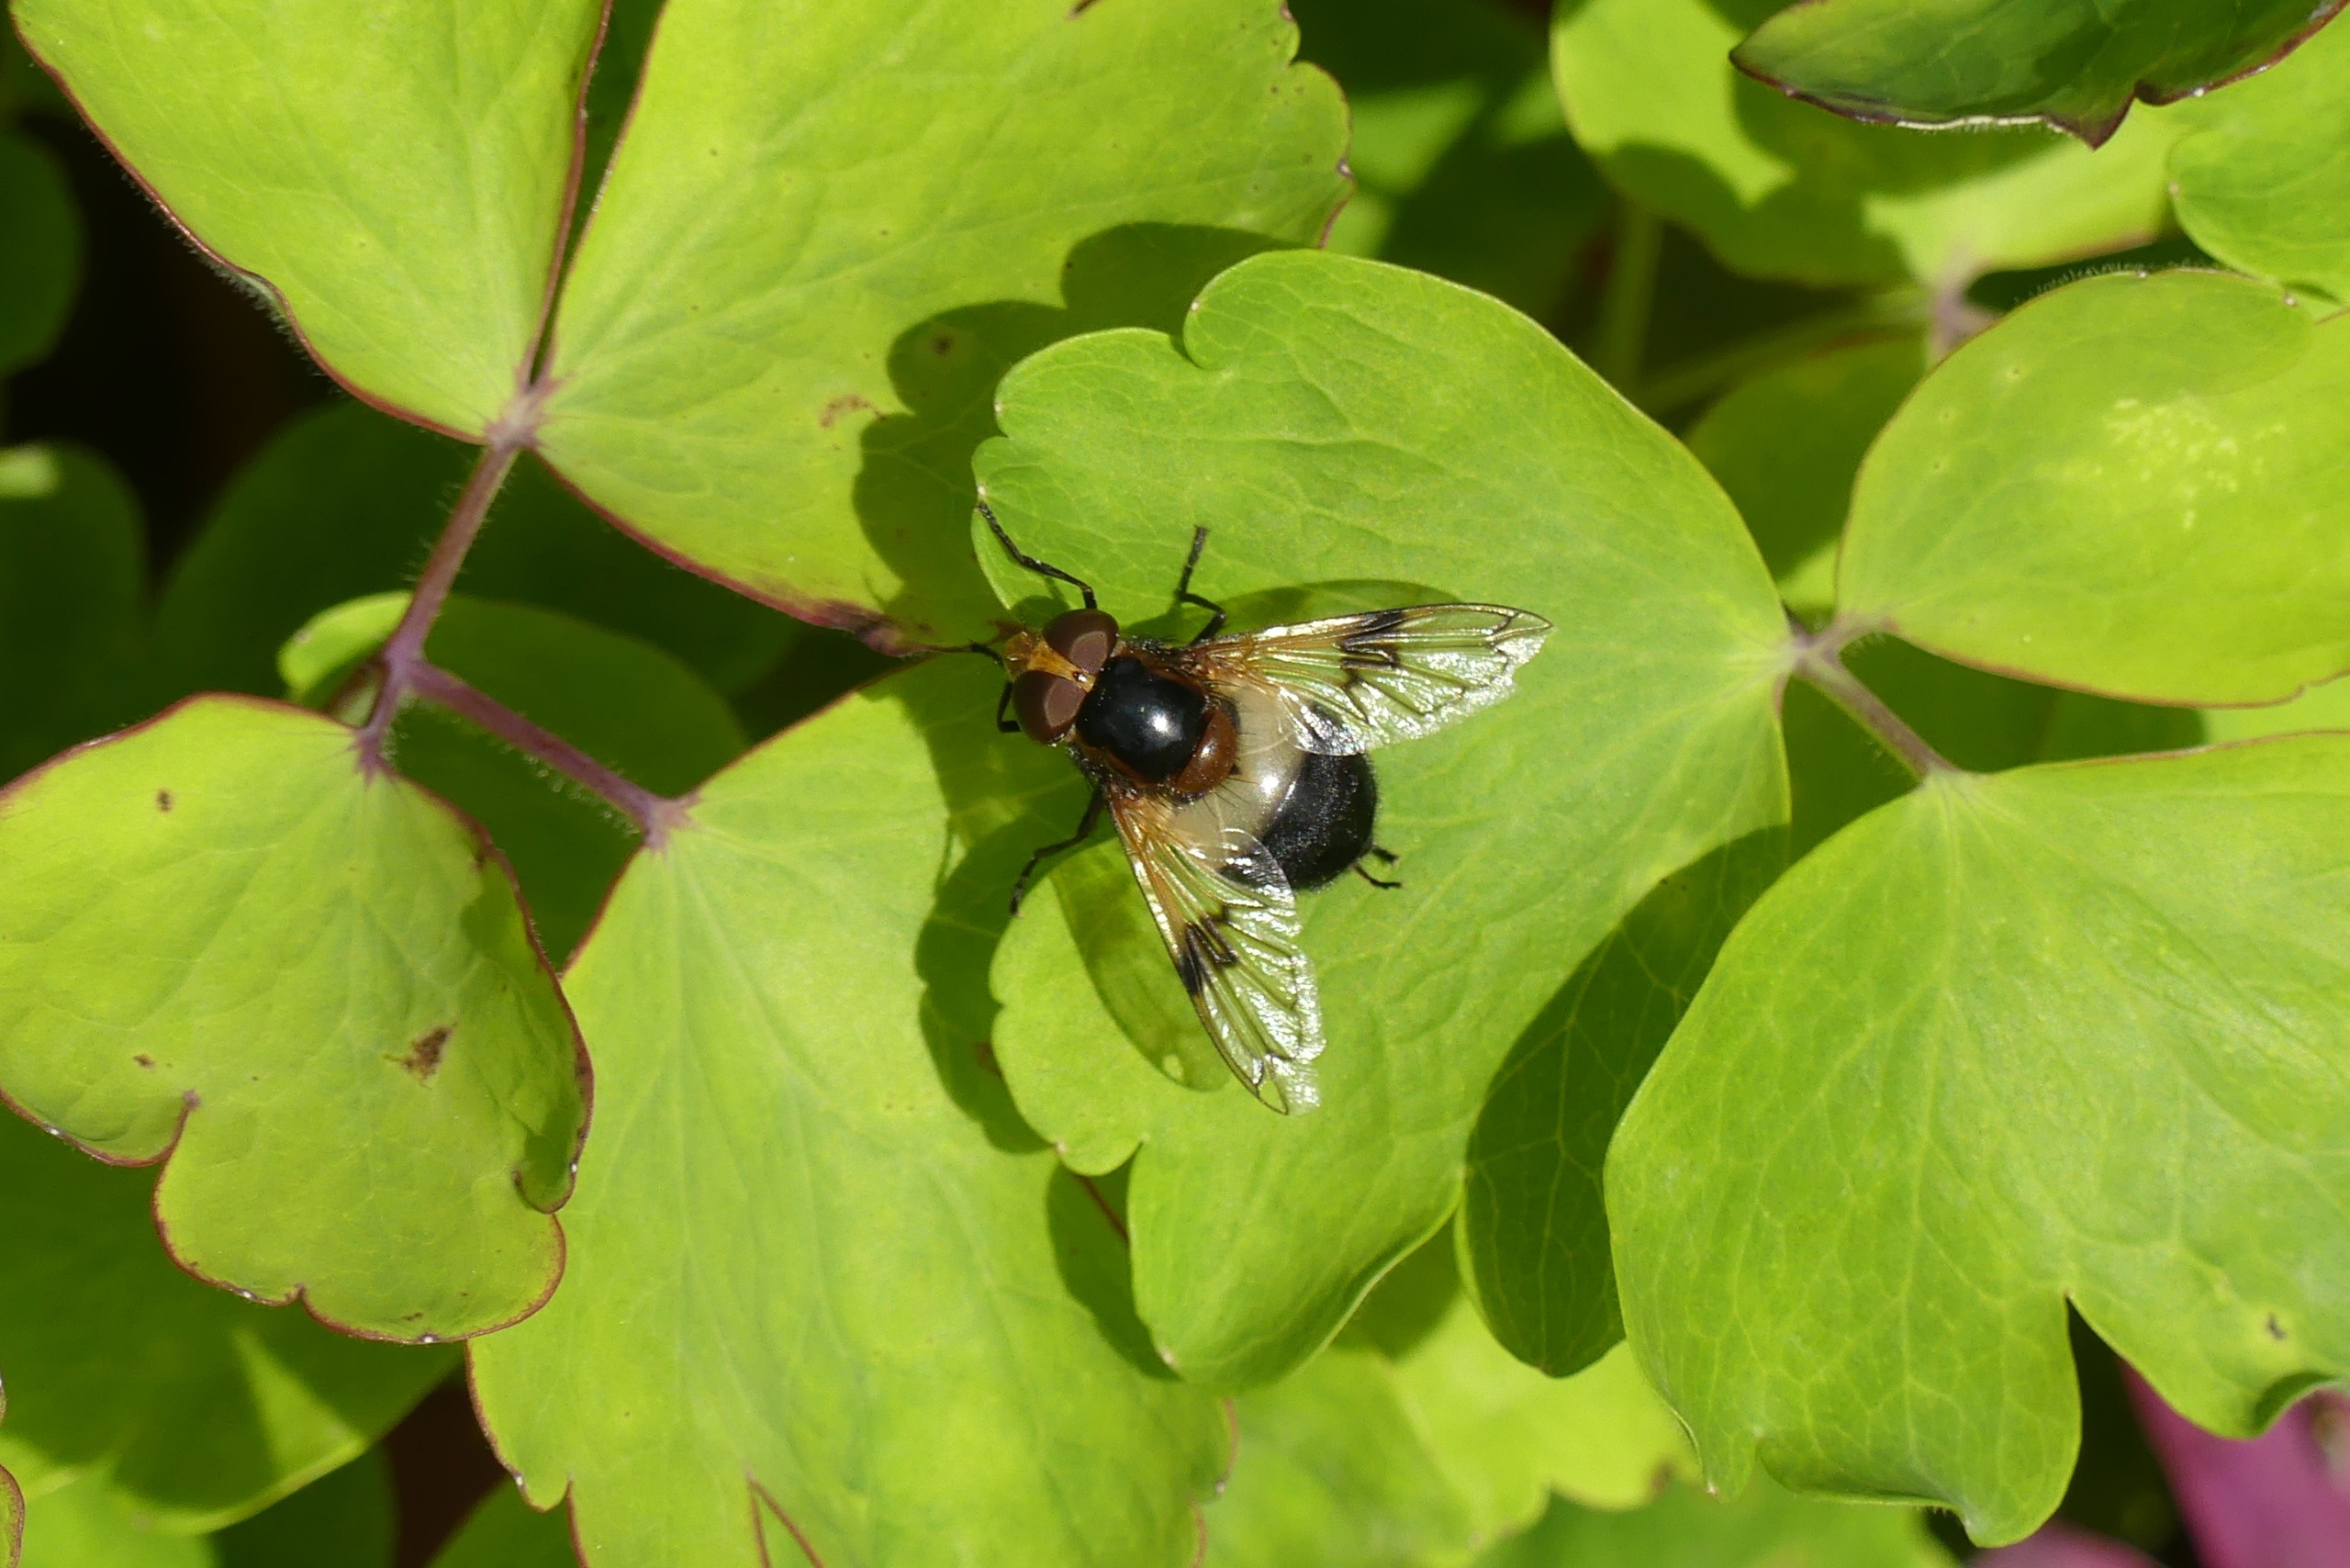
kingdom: Animalia
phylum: Arthropoda
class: Insecta
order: Diptera
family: Syrphidae
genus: Volucella
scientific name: Volucella pellucens
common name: Hvidbåndet humlesvirreflue
